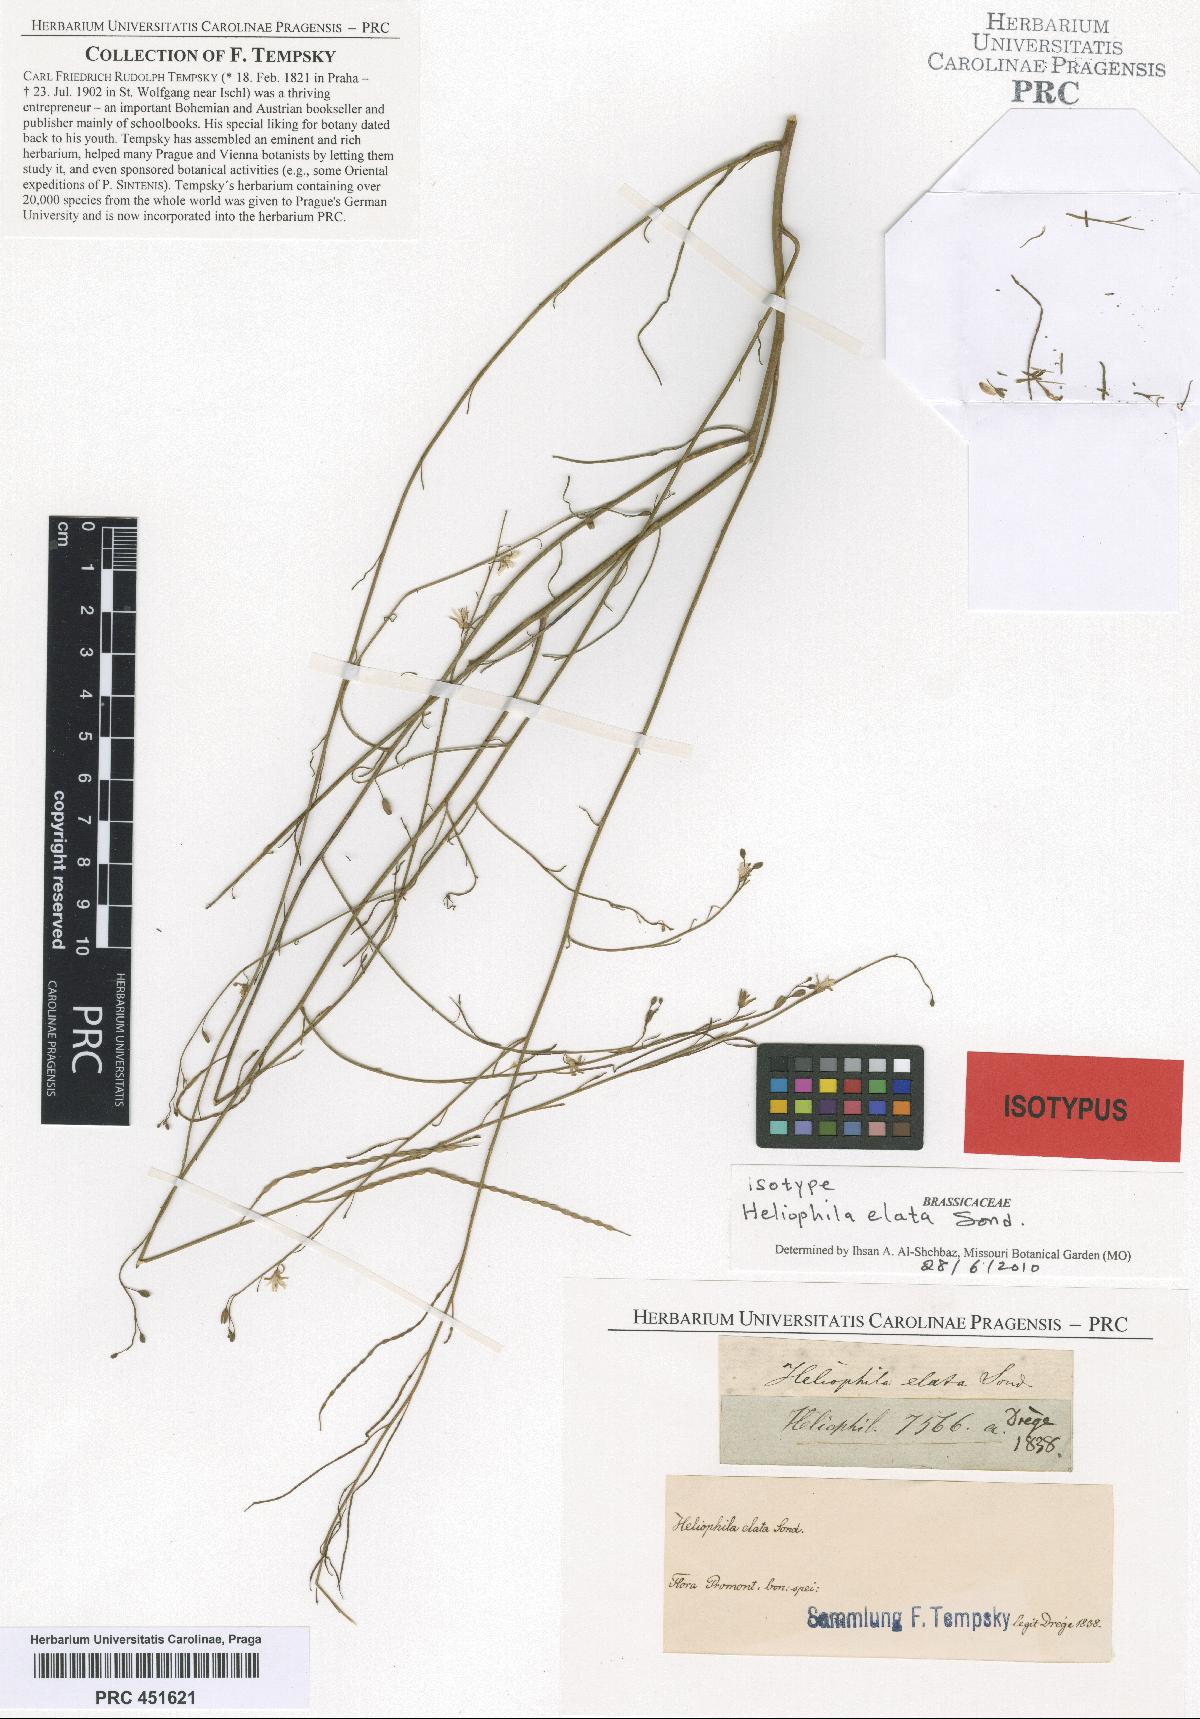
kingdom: Plantae
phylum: Tracheophyta
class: Magnoliopsida
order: Brassicales
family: Brassicaceae
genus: Heliophila
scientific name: Heliophila elata
